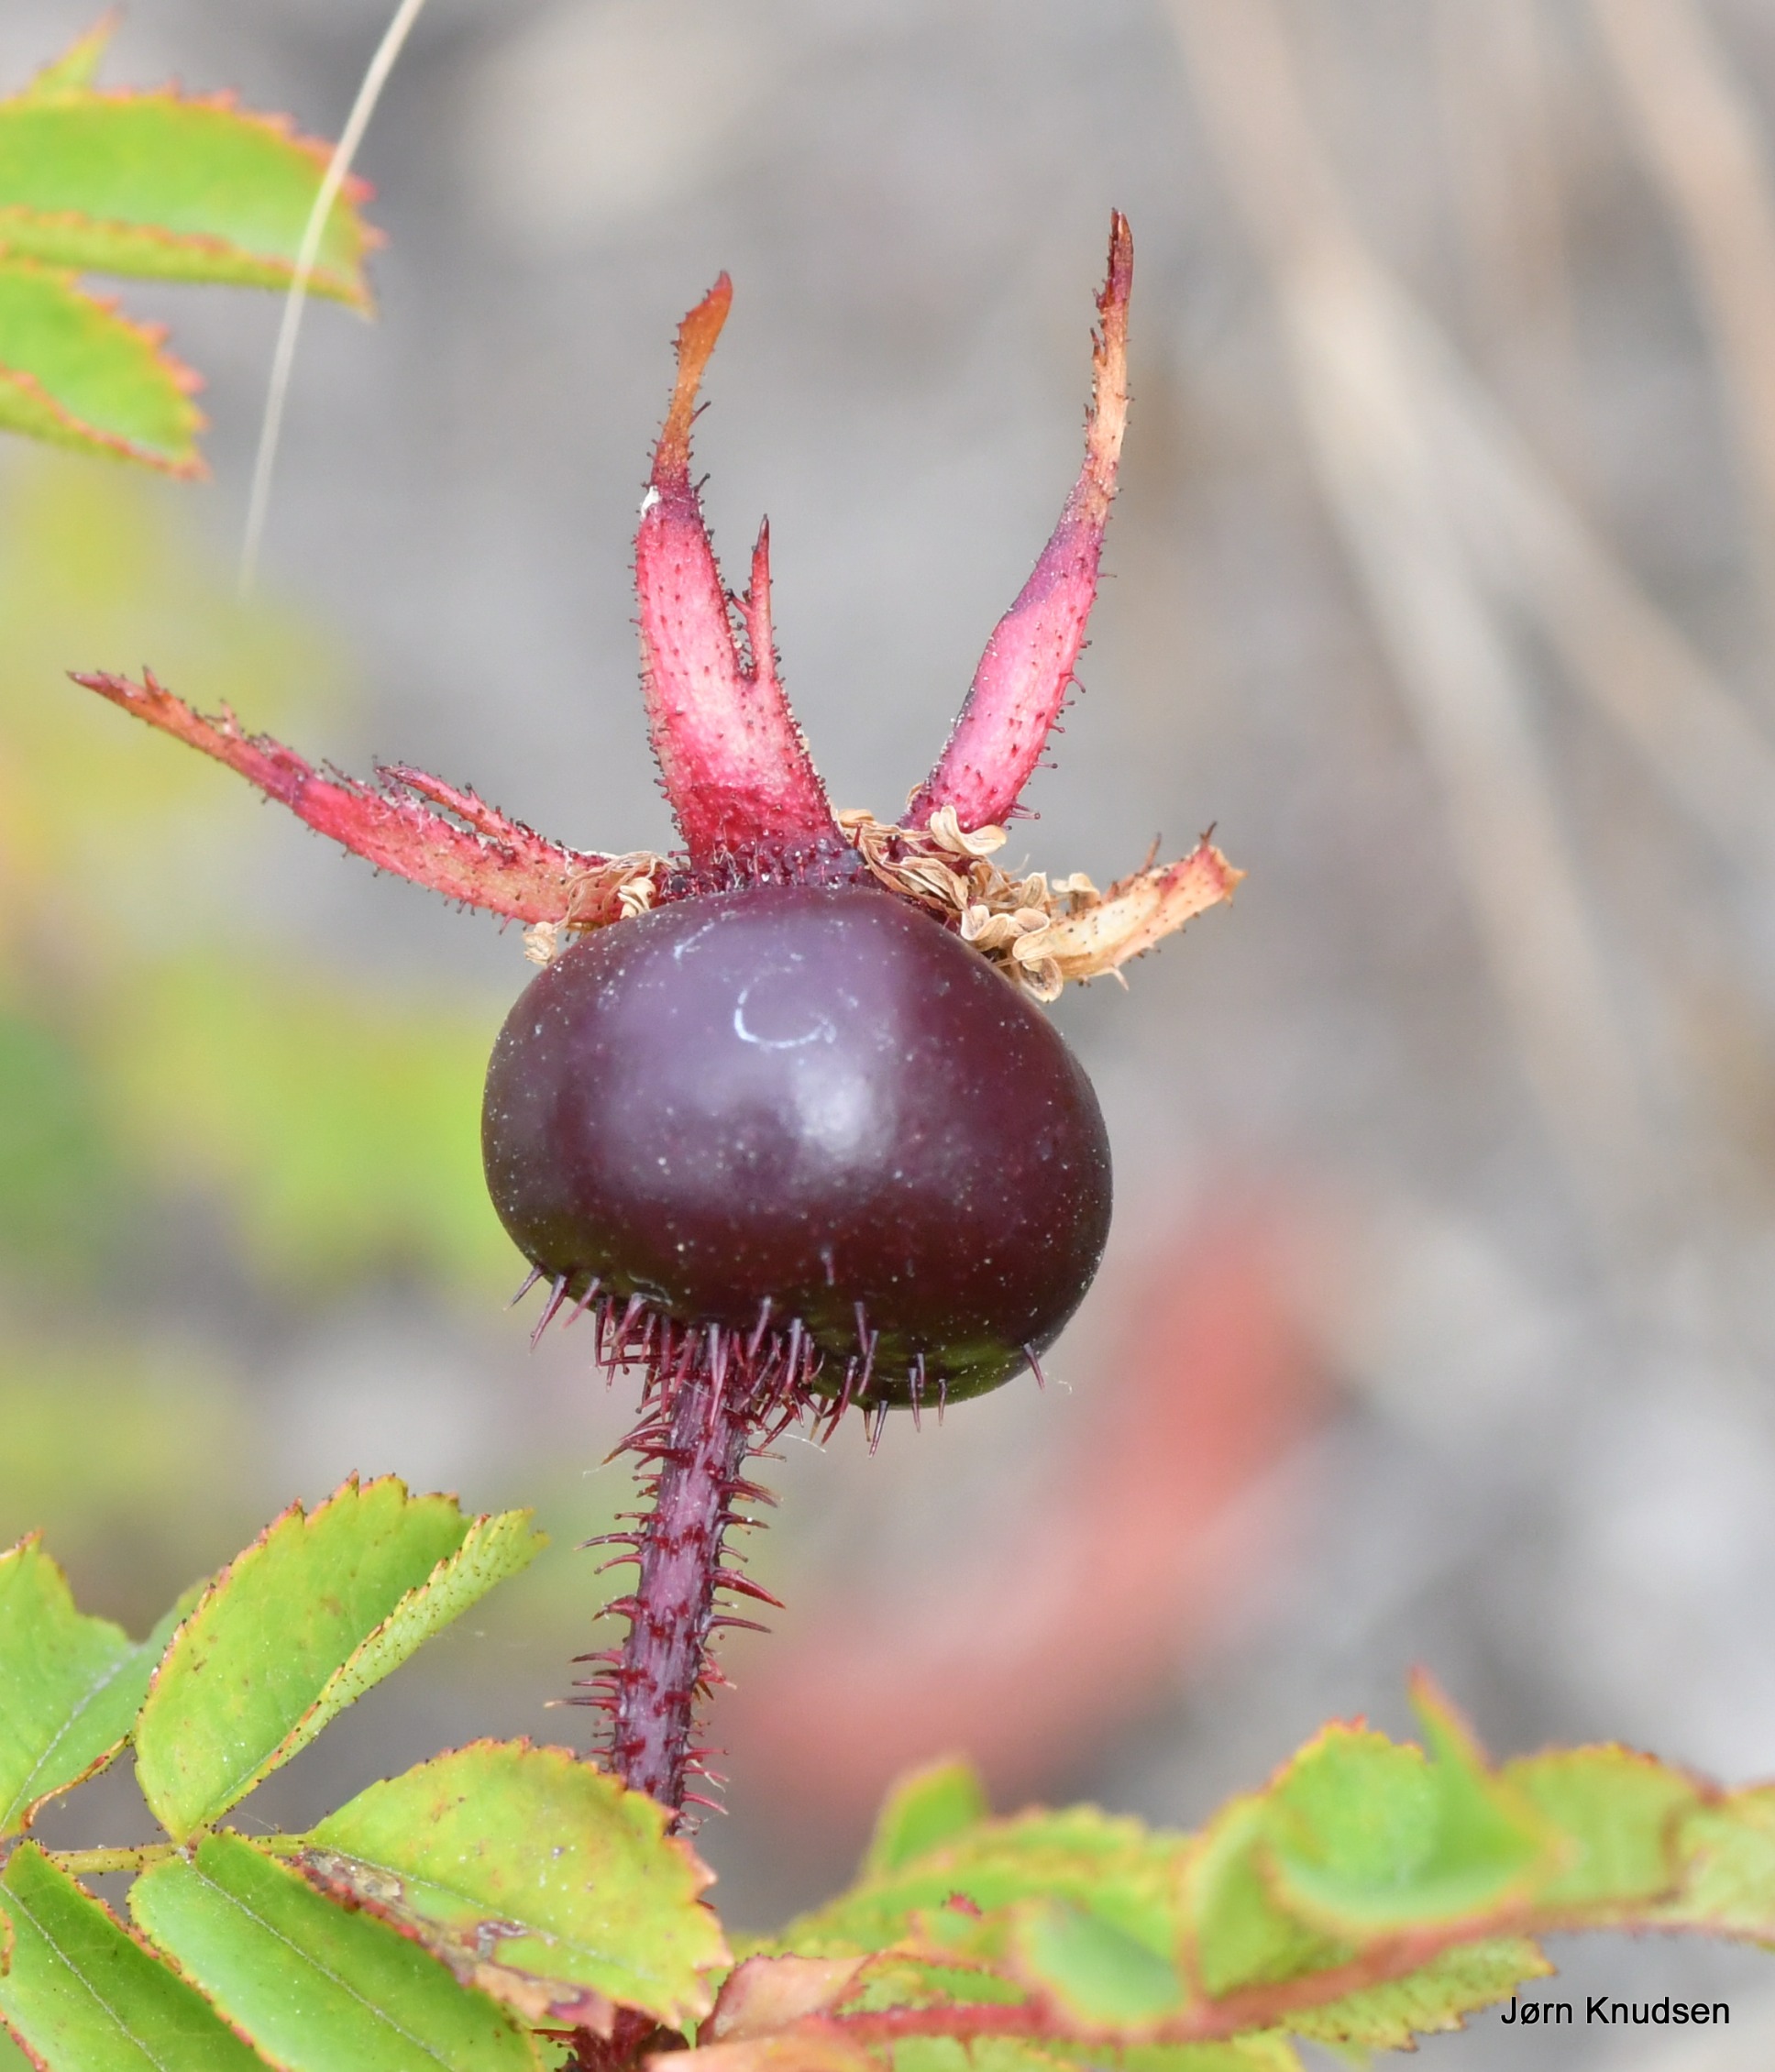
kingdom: Plantae
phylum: Tracheophyta
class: Magnoliopsida
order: Rosales
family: Rosaceae
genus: Rosa
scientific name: Rosa spinosissima
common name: Klit-rose
